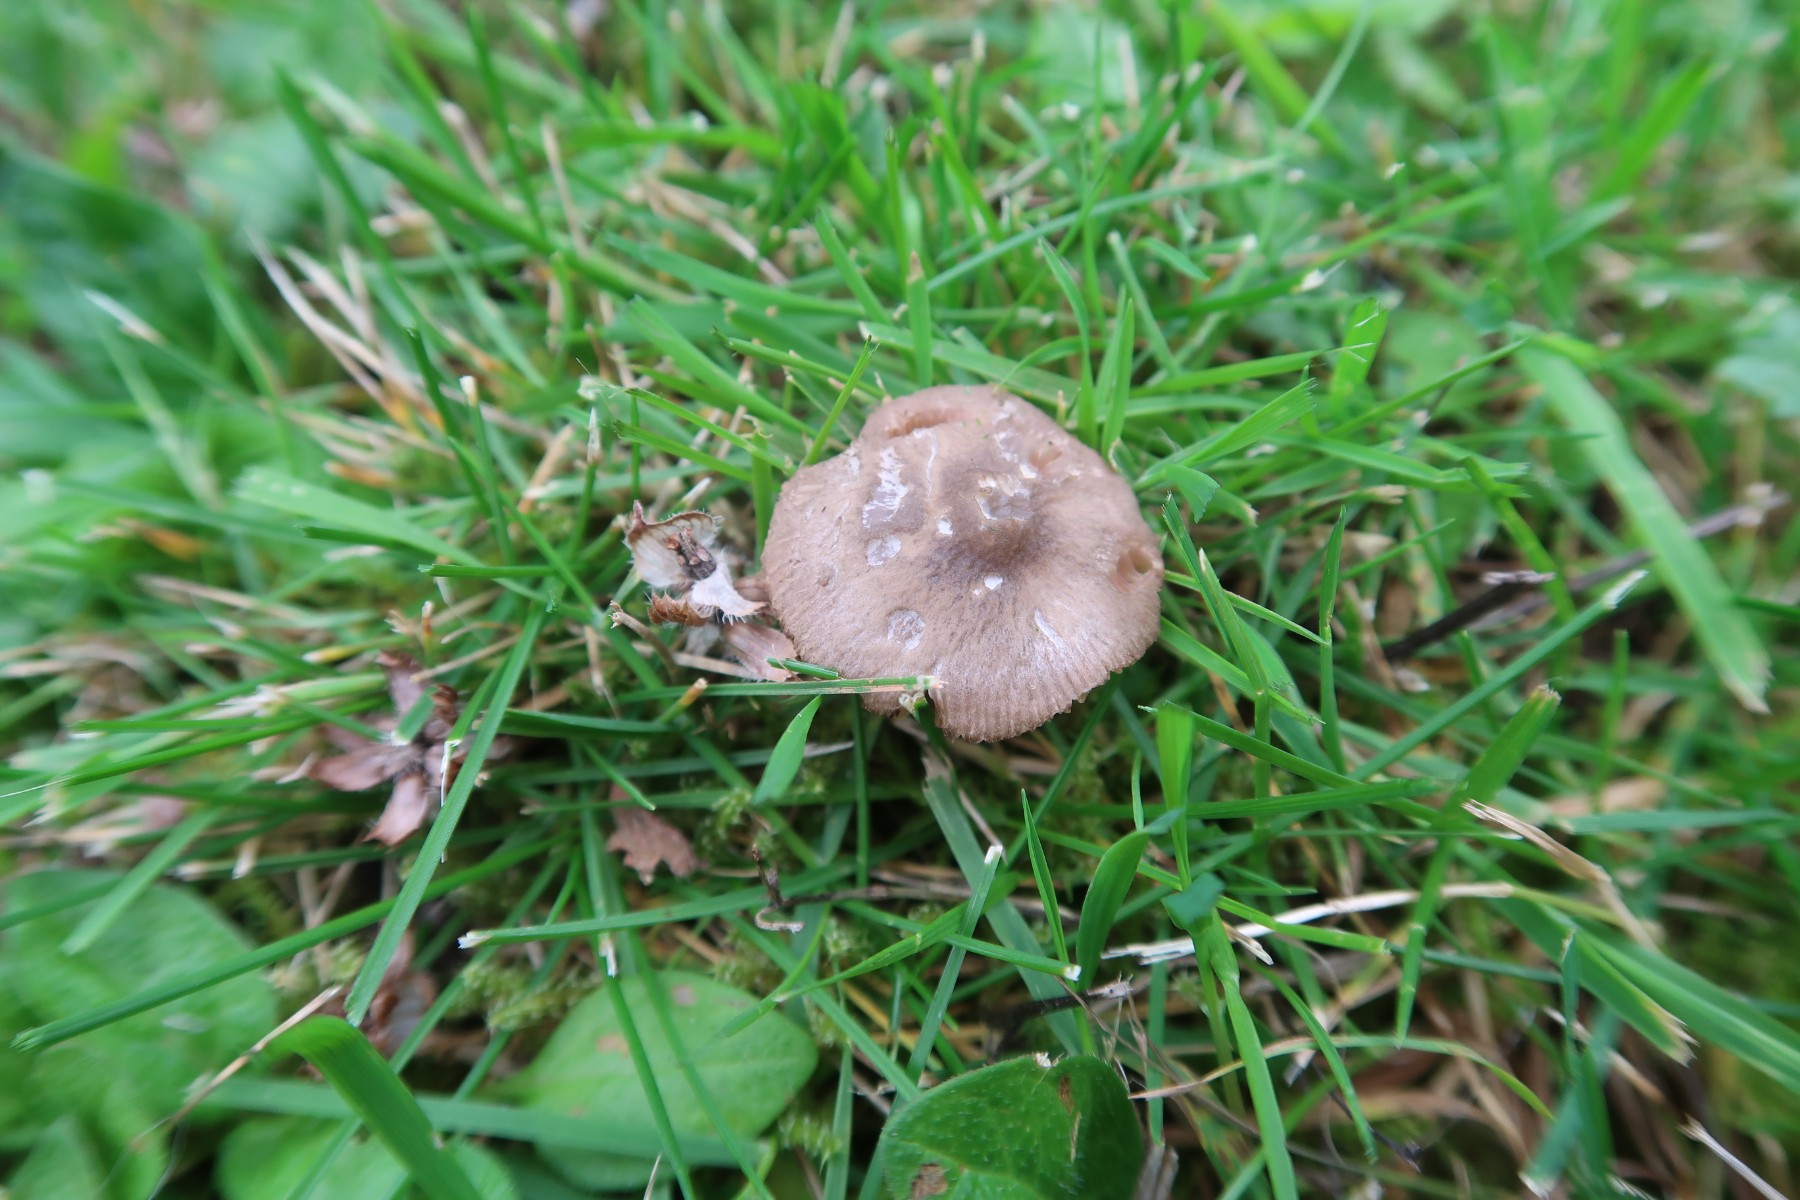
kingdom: Fungi
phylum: Basidiomycota
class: Agaricomycetes
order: Agaricales
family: Pluteaceae
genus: Pluteus
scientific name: Pluteus
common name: pudret skærmhat
